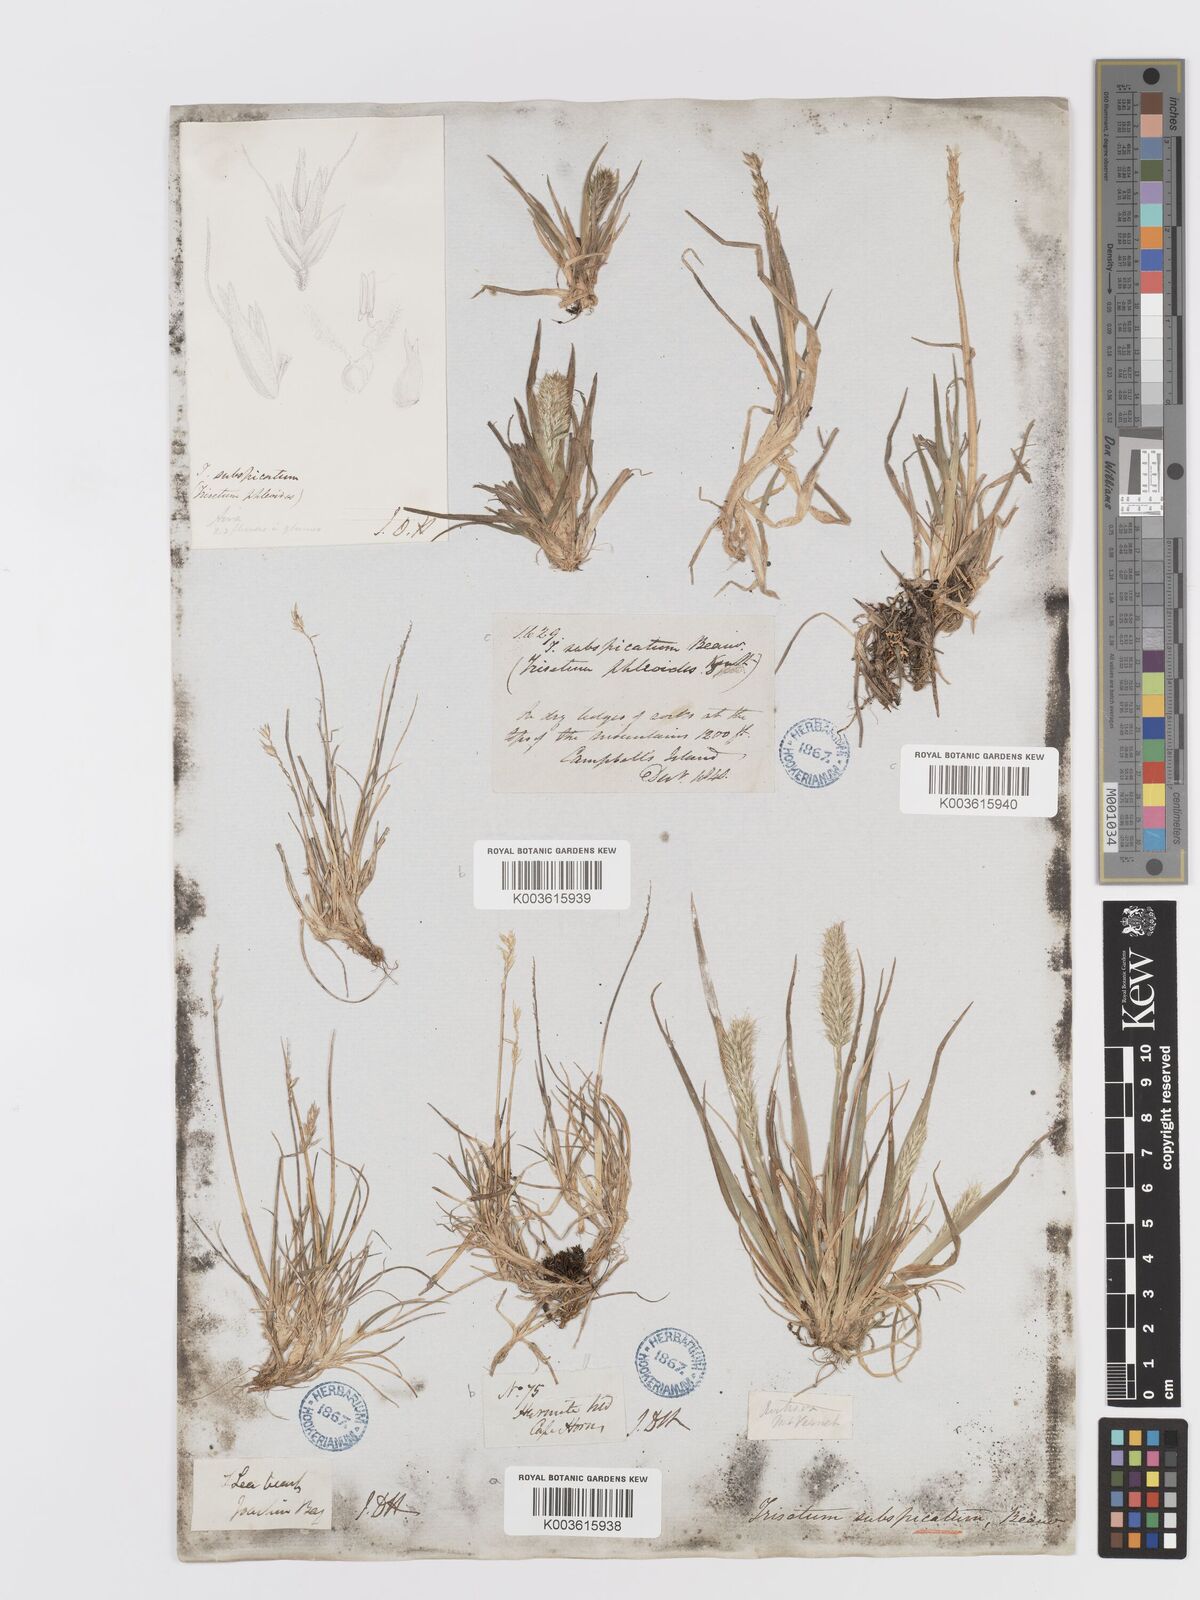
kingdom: Plantae
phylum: Tracheophyta
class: Liliopsida
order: Poales
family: Poaceae
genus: Koeleria
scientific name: Koeleria spicata
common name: Mountain trisetum
